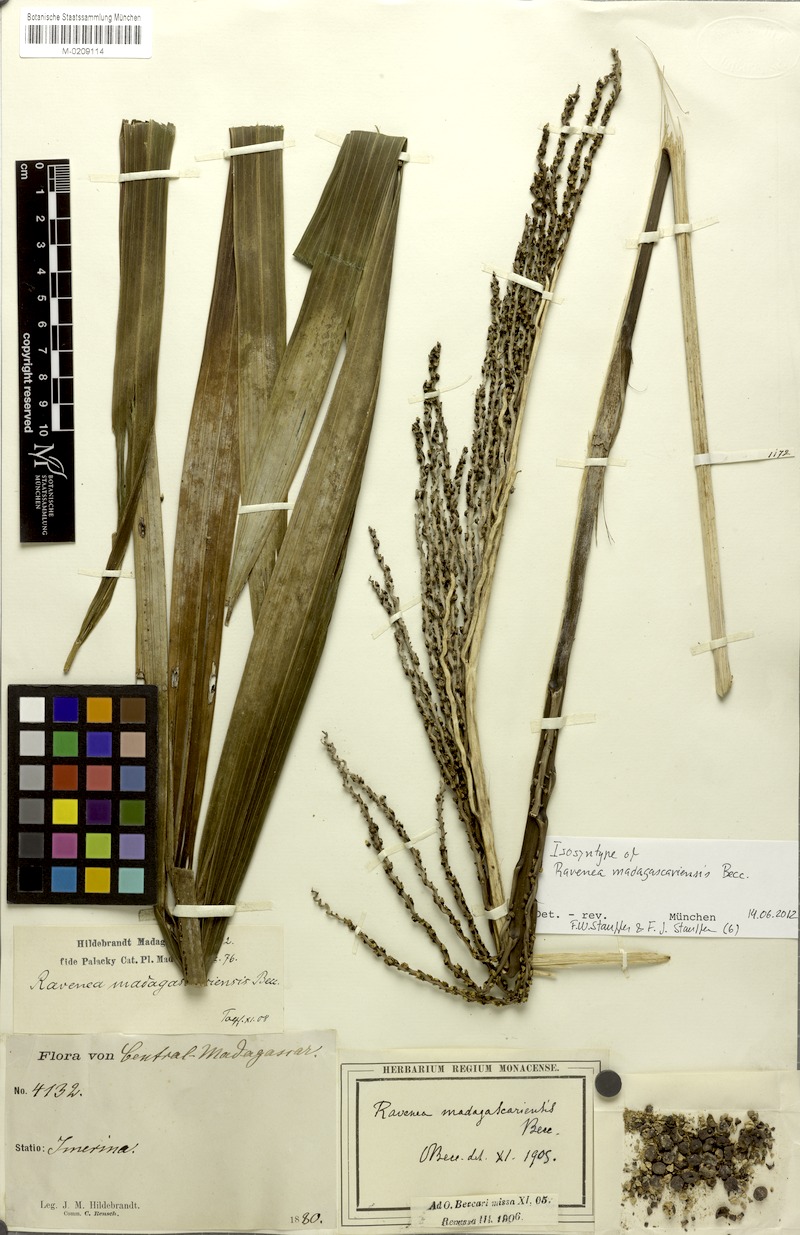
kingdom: Plantae
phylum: Tracheophyta
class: Liliopsida
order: Arecales
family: Arecaceae
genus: Ravenea
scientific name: Ravenea madagascariensis
